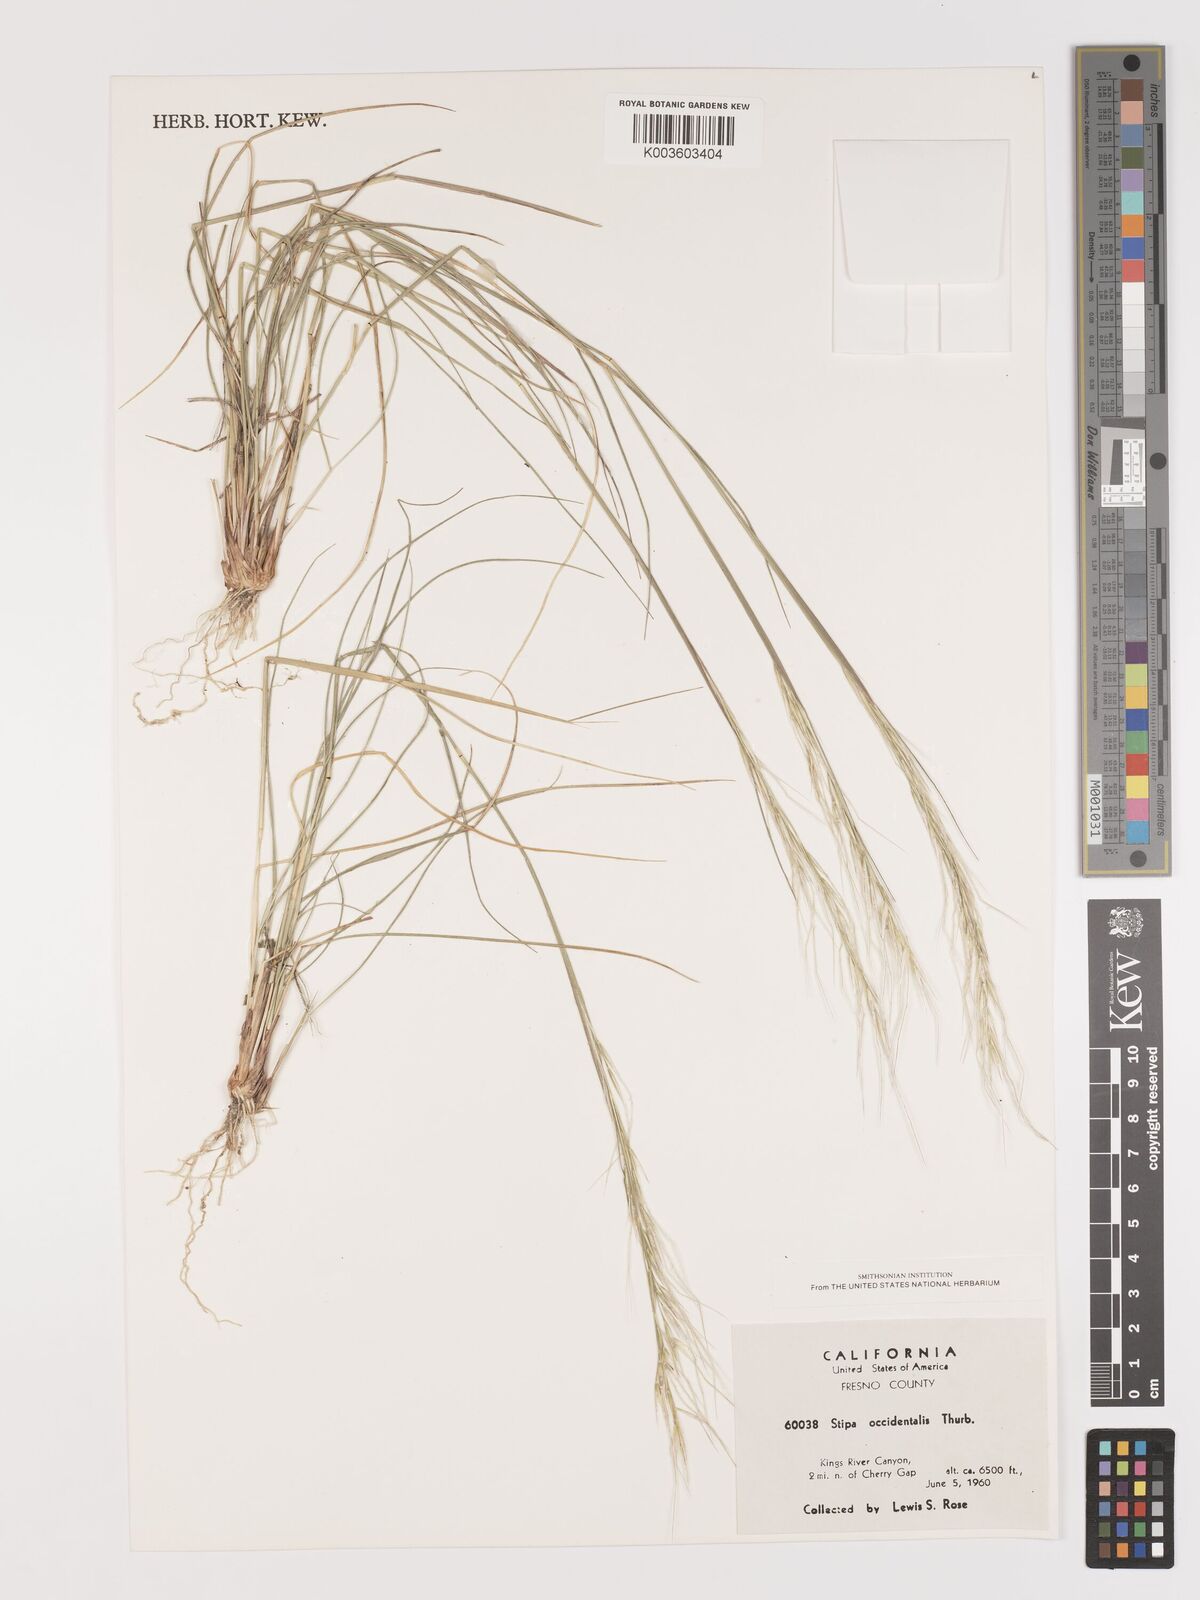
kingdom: Plantae
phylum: Tracheophyta
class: Liliopsida
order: Poales
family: Poaceae
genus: Eriocoma
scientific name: Eriocoma thurberiana
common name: Thurber's needlegrass
